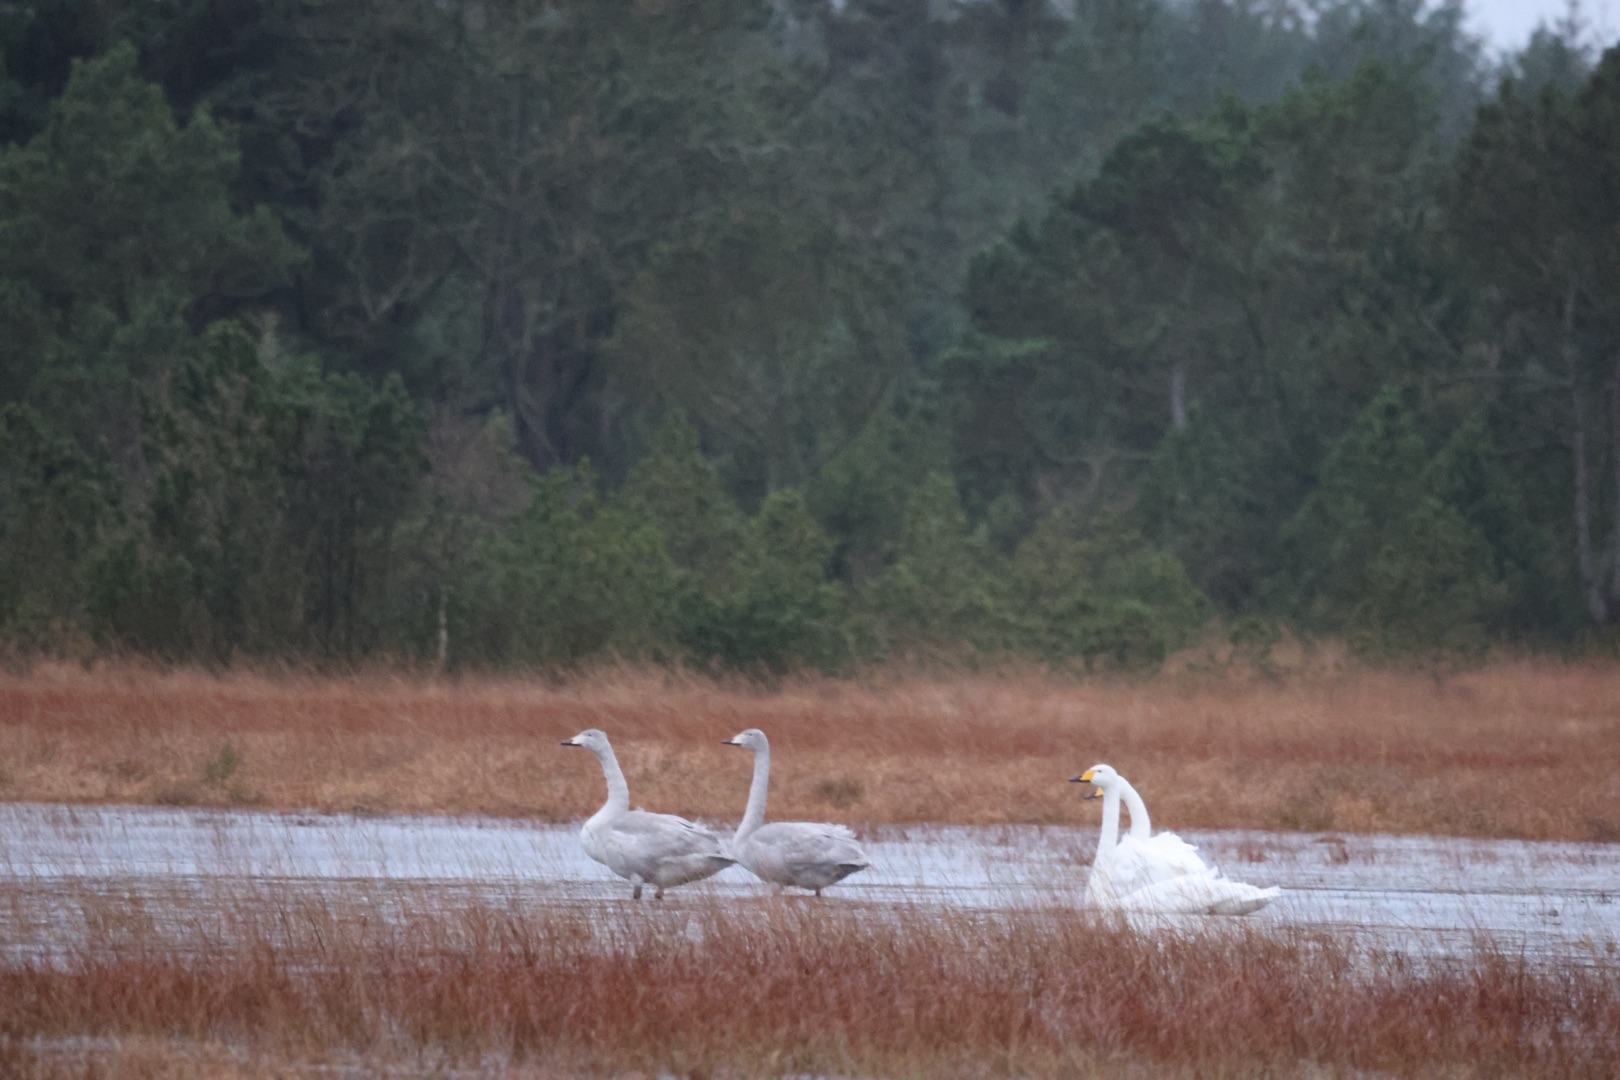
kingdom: Animalia
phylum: Chordata
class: Aves
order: Anseriformes
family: Anatidae
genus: Cygnus
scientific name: Cygnus cygnus
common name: Sangsvane
